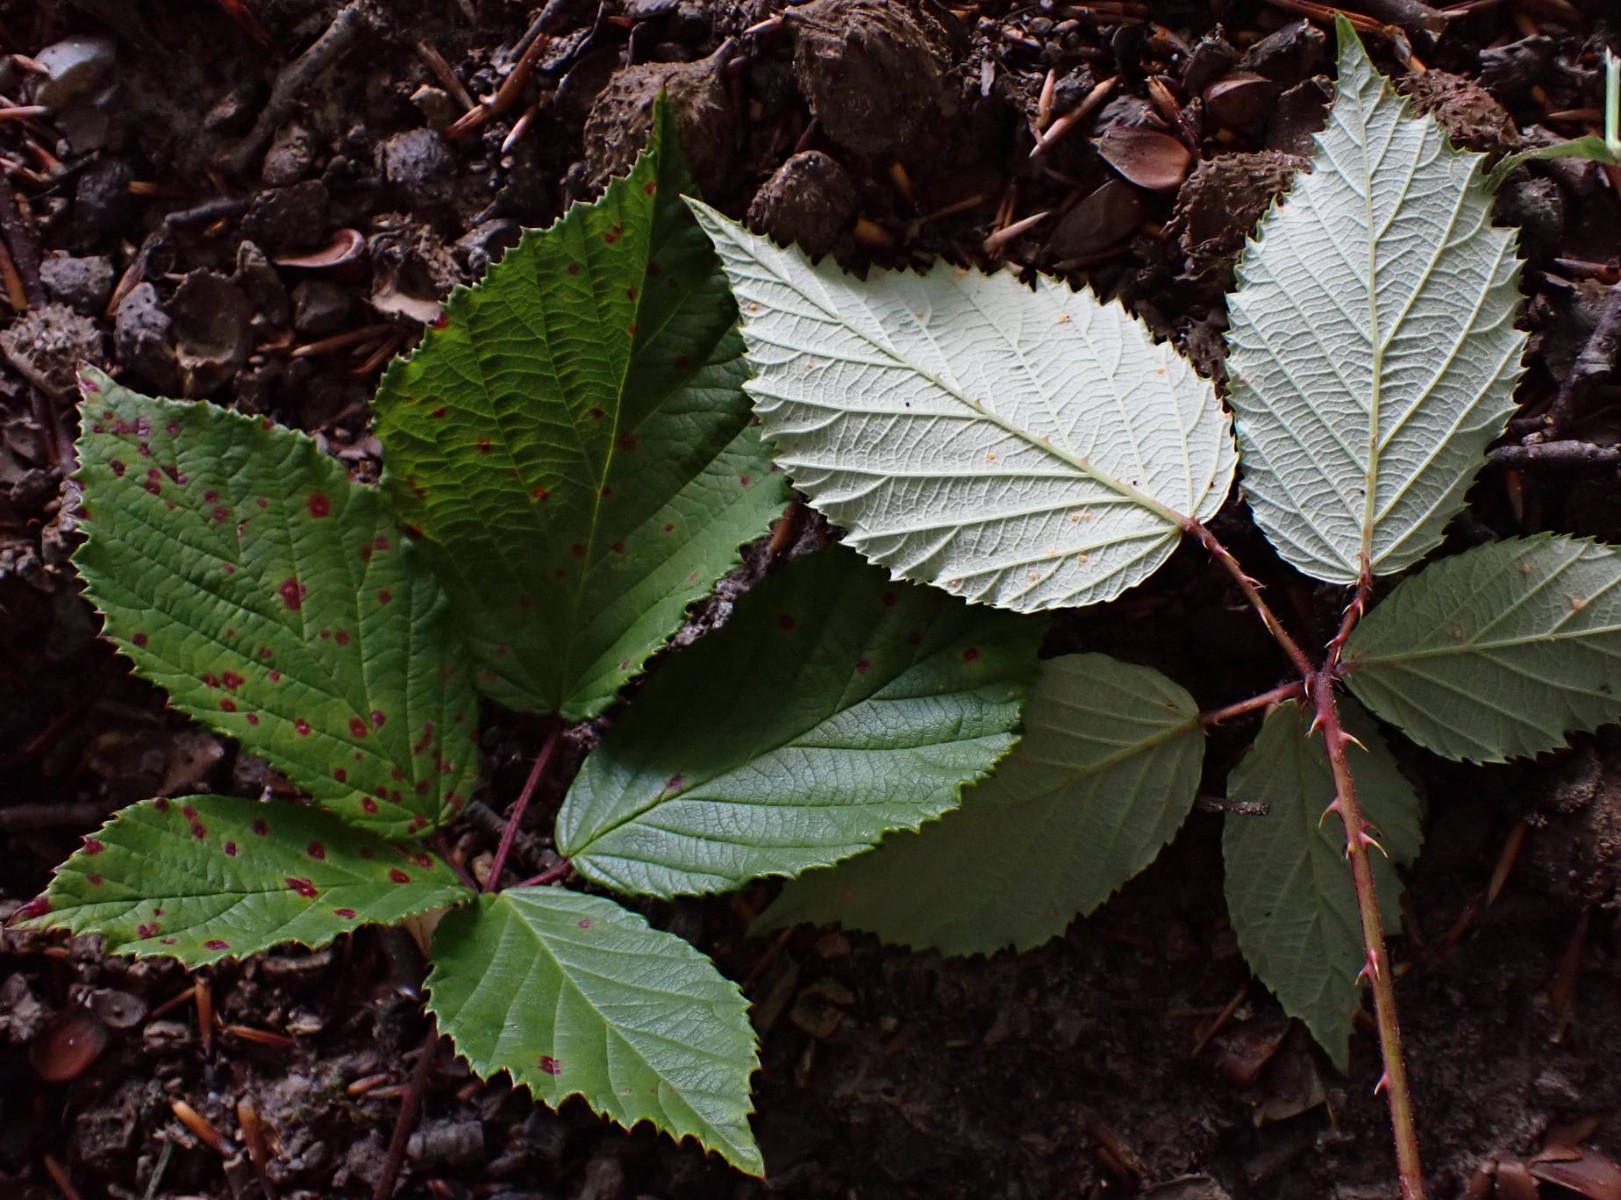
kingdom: Fungi
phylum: Basidiomycota
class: Pucciniomycetes
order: Pucciniales
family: Phragmidiaceae
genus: Phragmidium
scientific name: Phragmidium violaceum
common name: violet flercellerust
